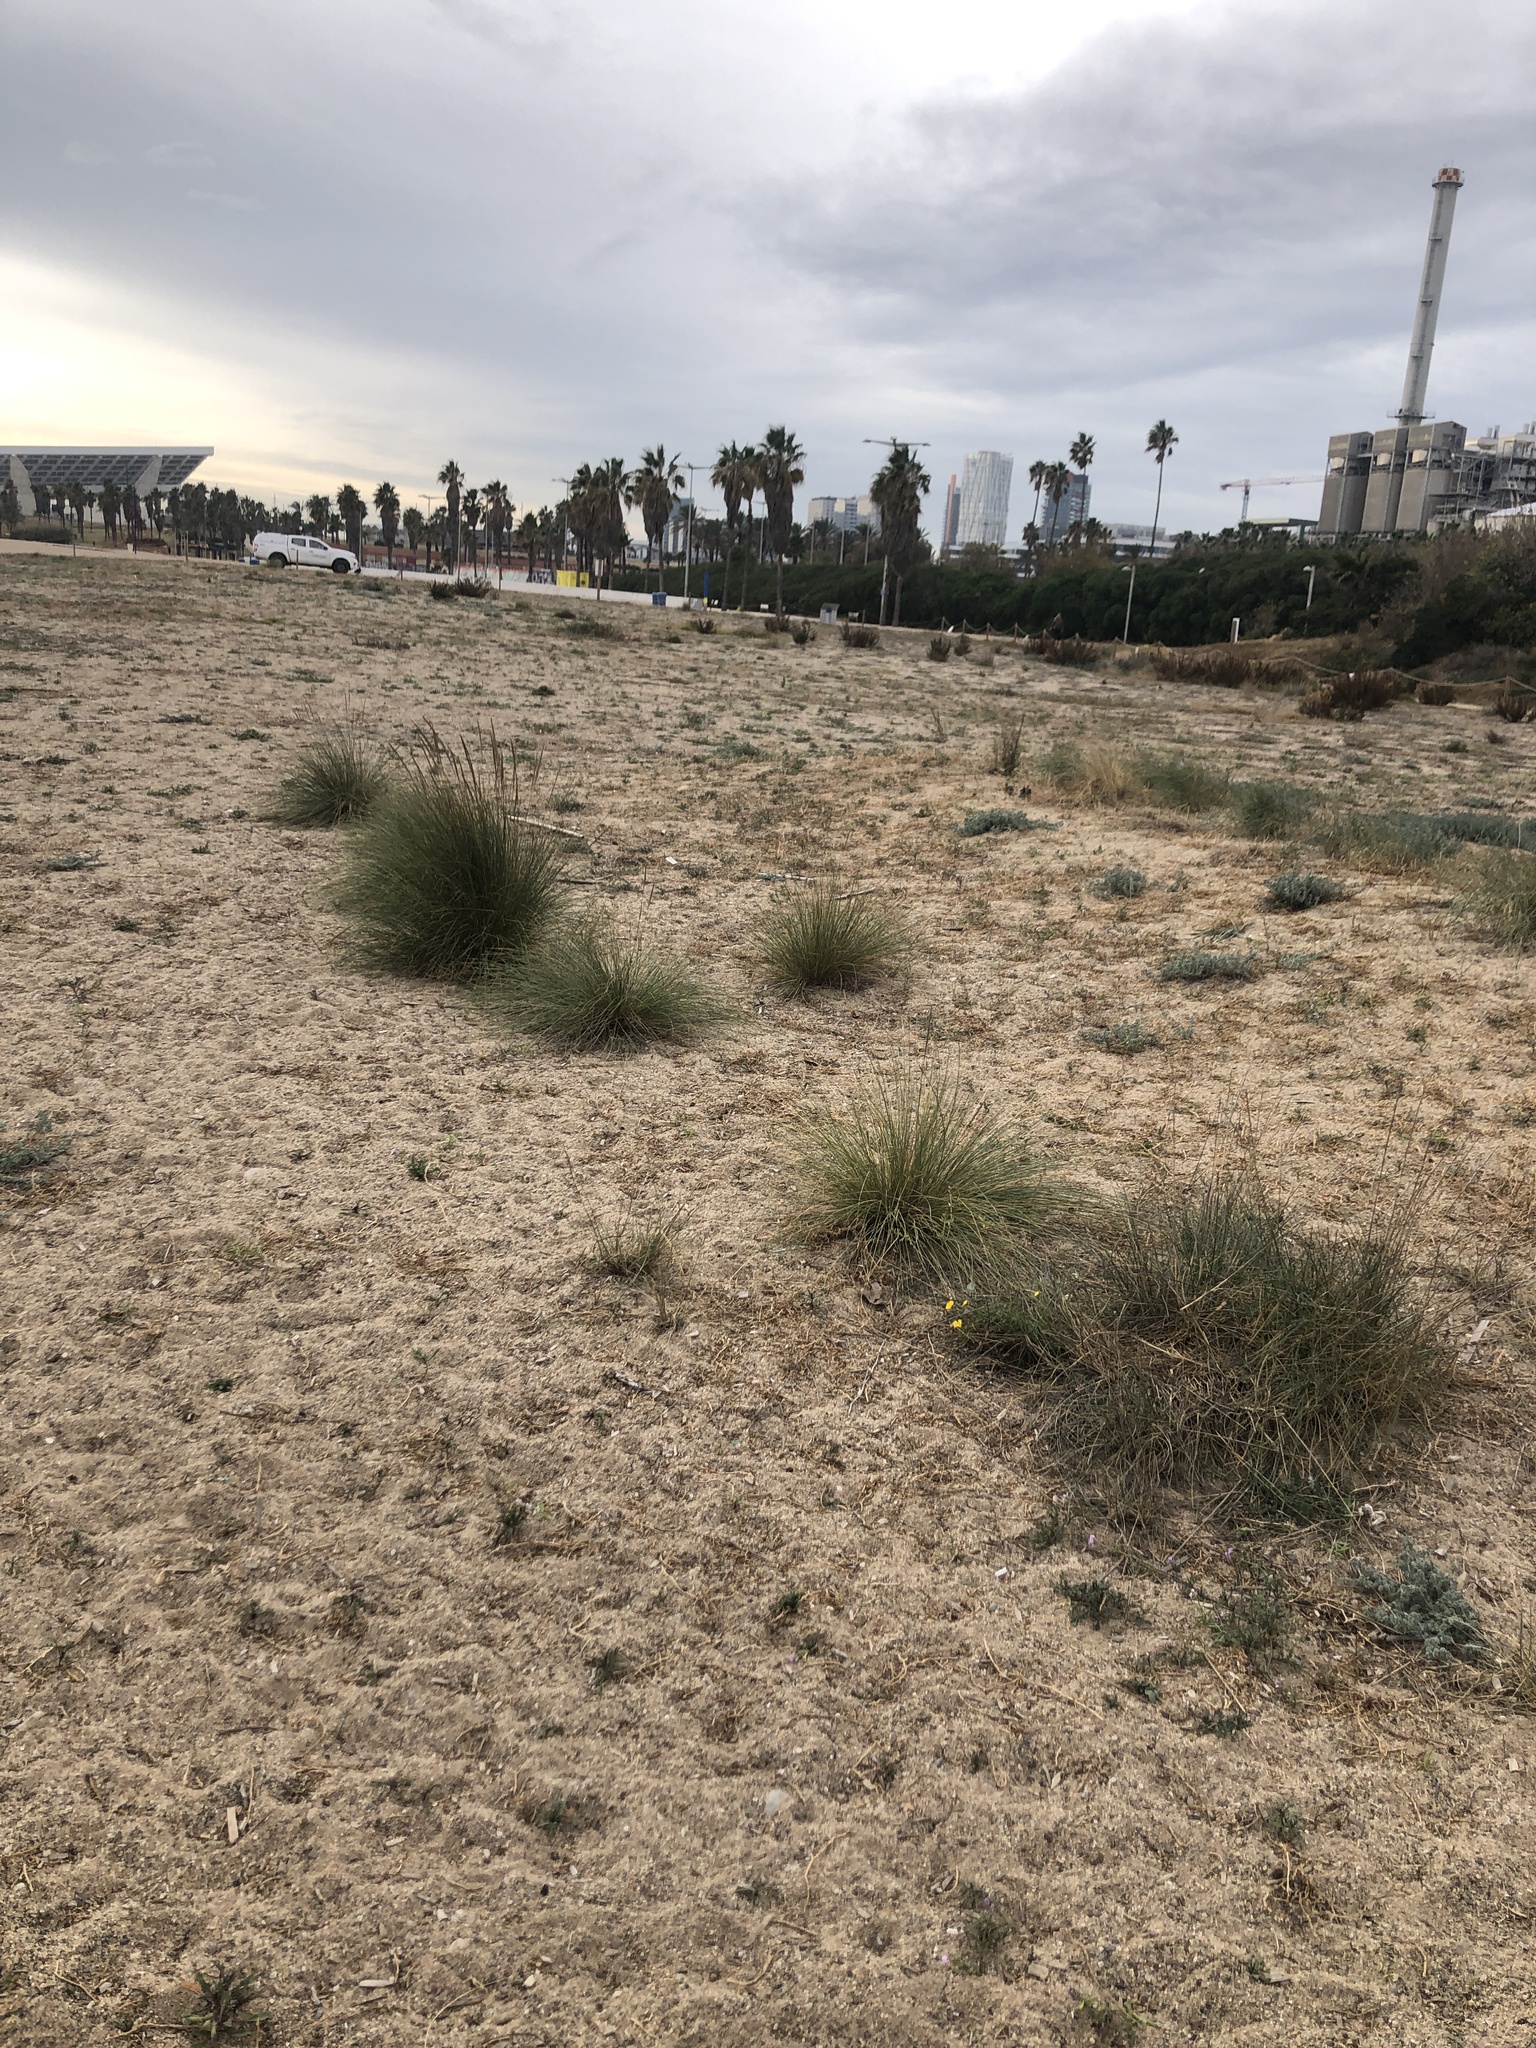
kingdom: Plantae
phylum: Tracheophyta
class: Liliopsida
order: Poales
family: Poaceae
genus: Calamagrostis
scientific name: Calamagrostis arenaria
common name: European beachgrass
